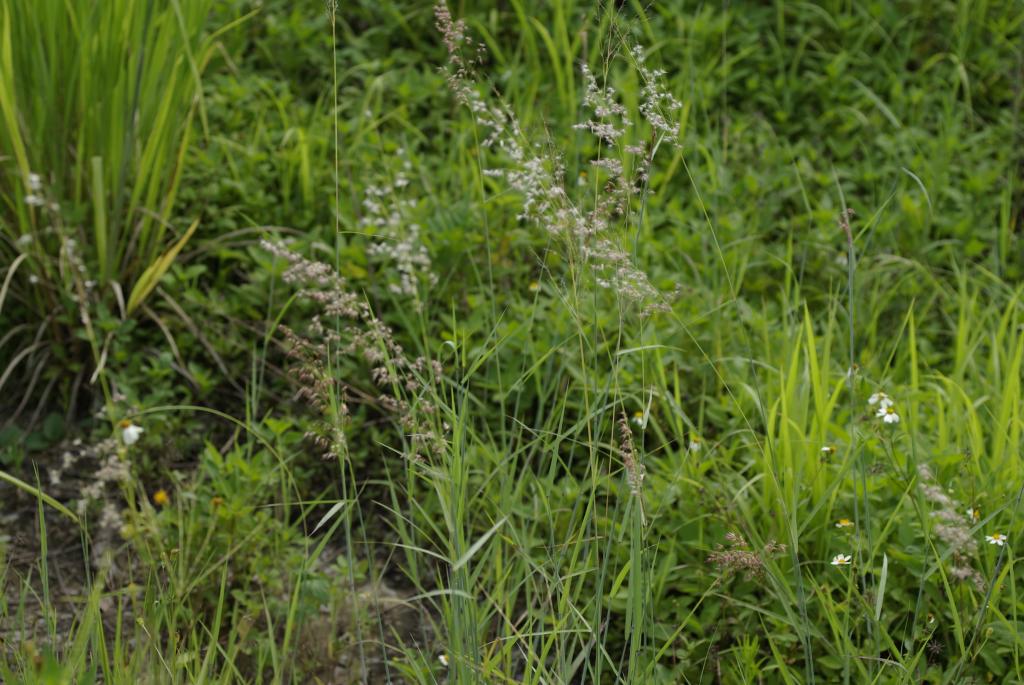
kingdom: Plantae
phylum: Tracheophyta
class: Liliopsida
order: Poales
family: Poaceae
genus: Melinis
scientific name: Melinis repens
